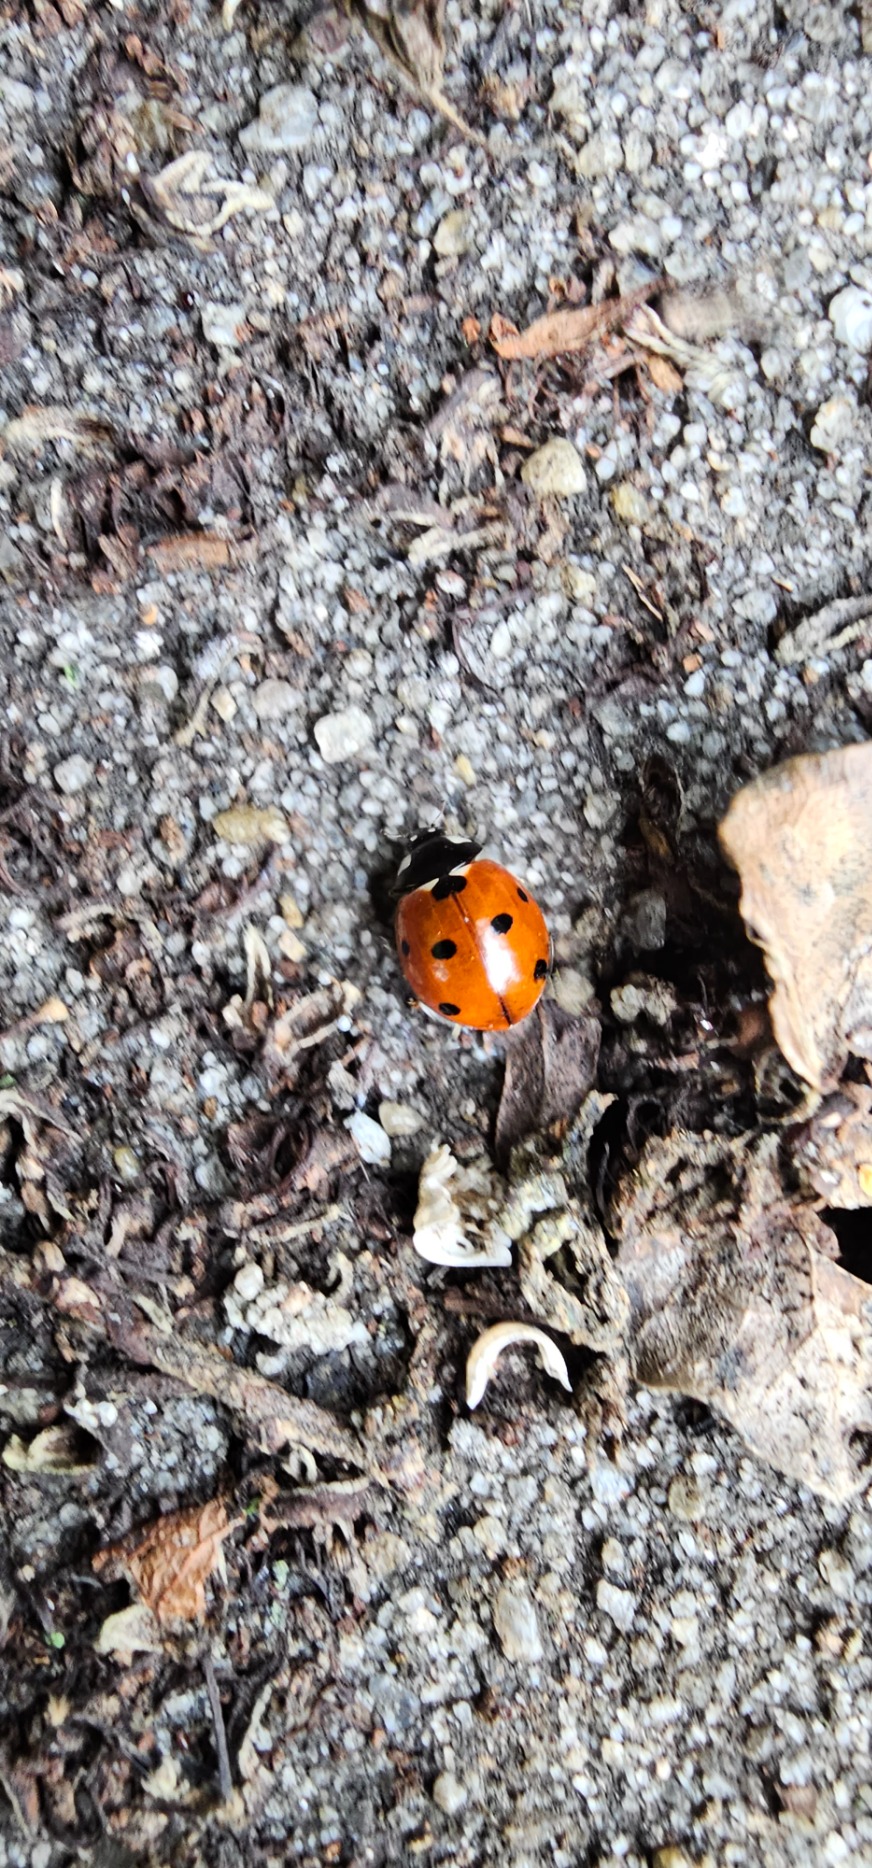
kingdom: Animalia
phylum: Arthropoda
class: Insecta
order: Coleoptera
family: Coccinellidae
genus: Coccinella
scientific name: Coccinella septempunctata
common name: Syvplettet mariehøne
